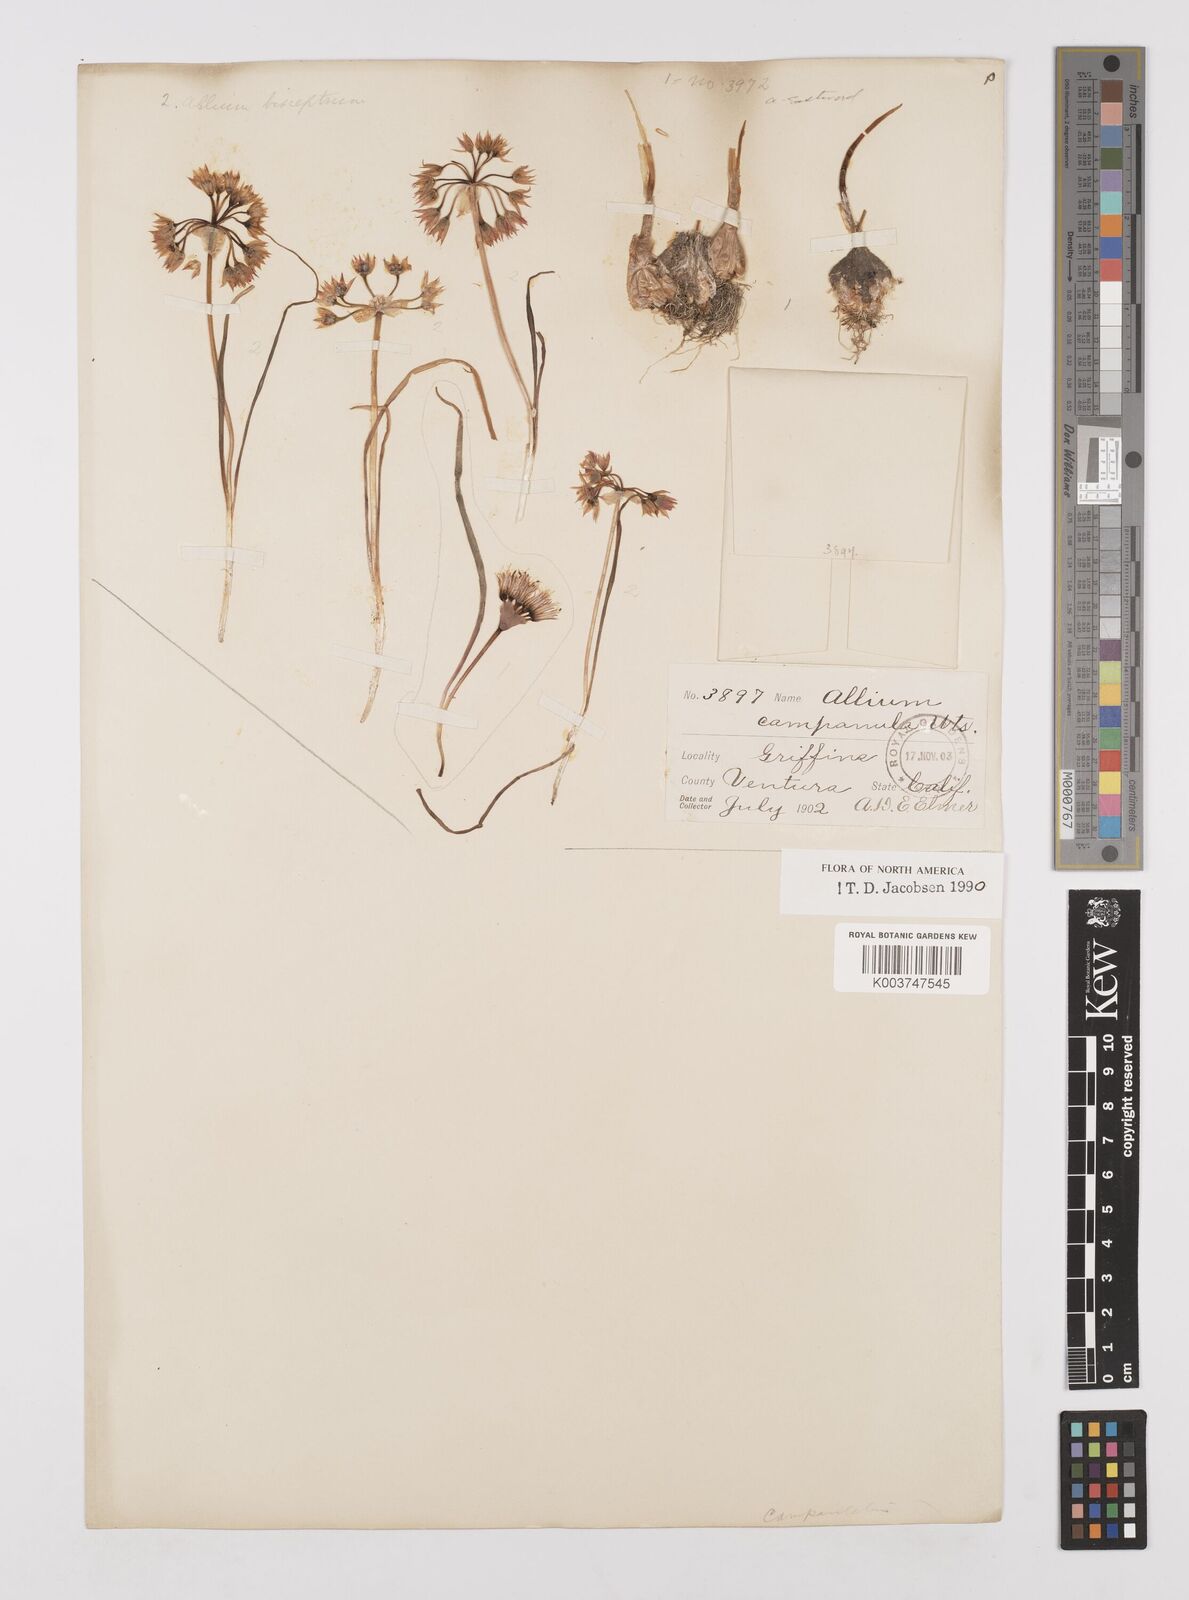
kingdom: Plantae
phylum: Tracheophyta
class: Liliopsida
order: Asparagales
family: Amaryllidaceae
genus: Allium
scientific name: Allium campanulatum
